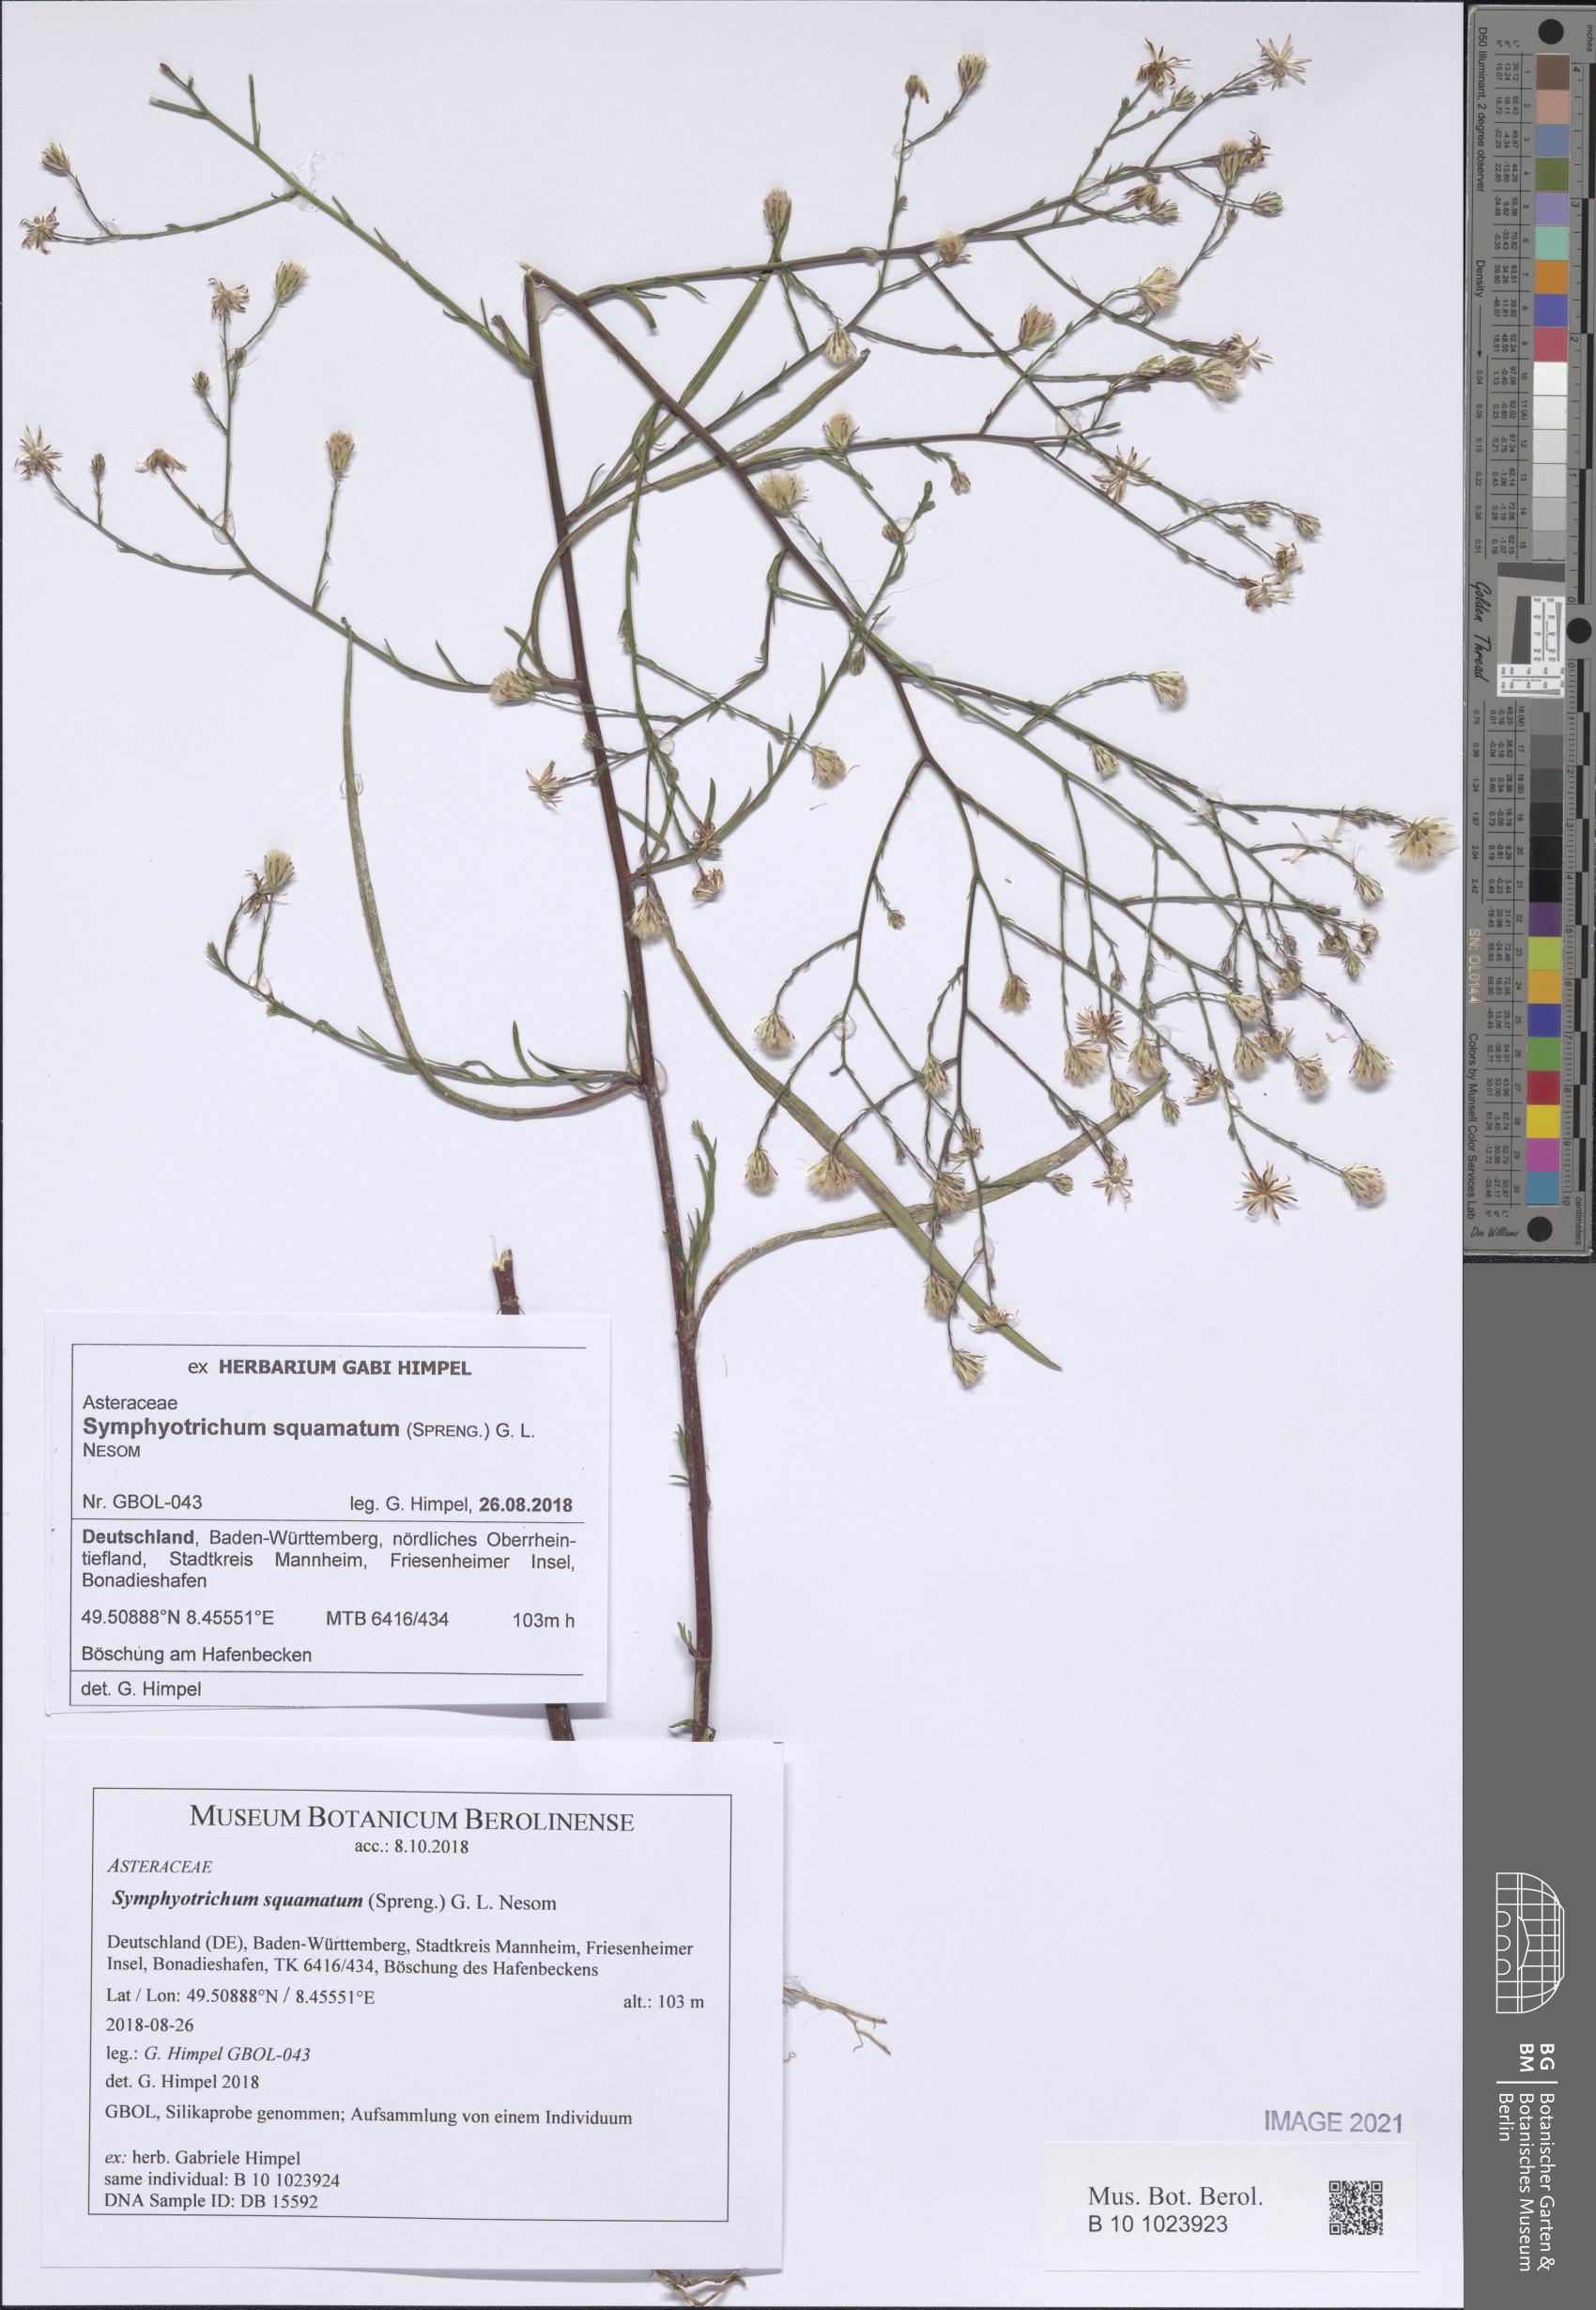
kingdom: Plantae
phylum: Tracheophyta
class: Magnoliopsida
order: Asterales
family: Asteraceae
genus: Symphyotrichum
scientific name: Symphyotrichum squamatum
